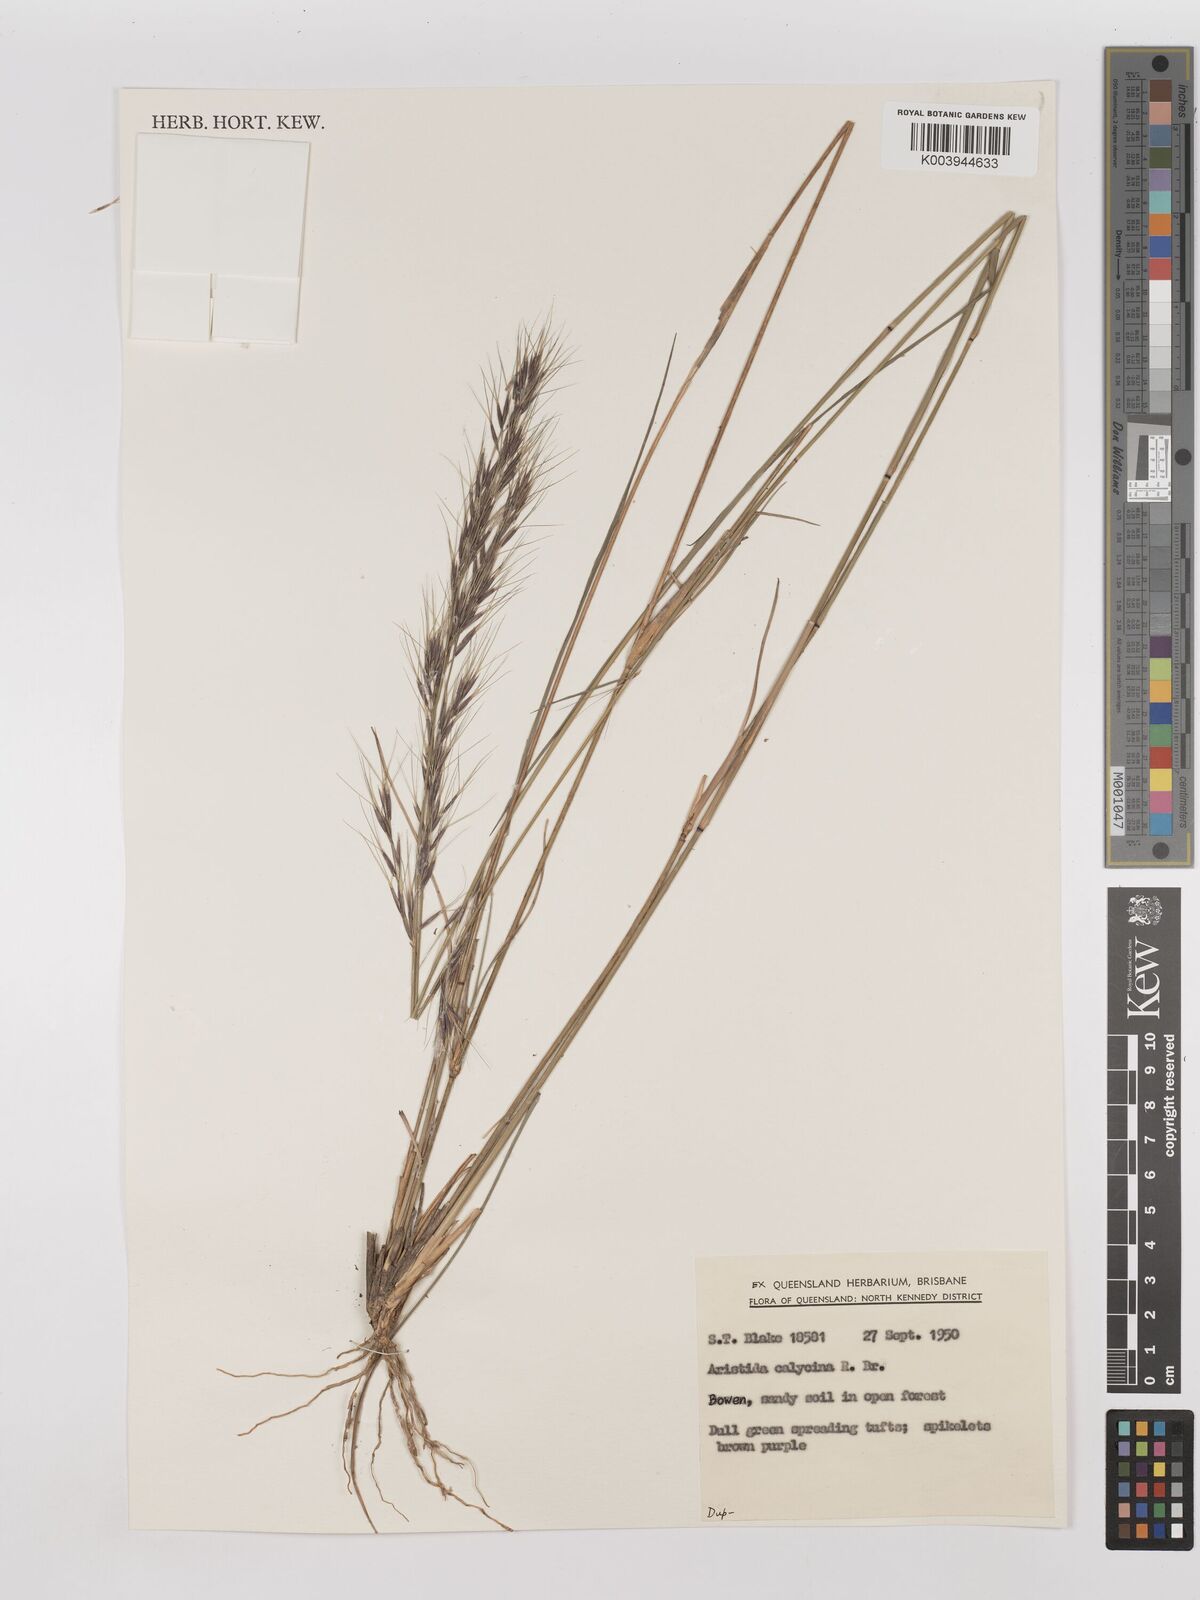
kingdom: Plantae
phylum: Tracheophyta
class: Liliopsida
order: Poales
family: Poaceae
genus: Aristida
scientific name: Aristida calycina
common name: Dark wire grass
